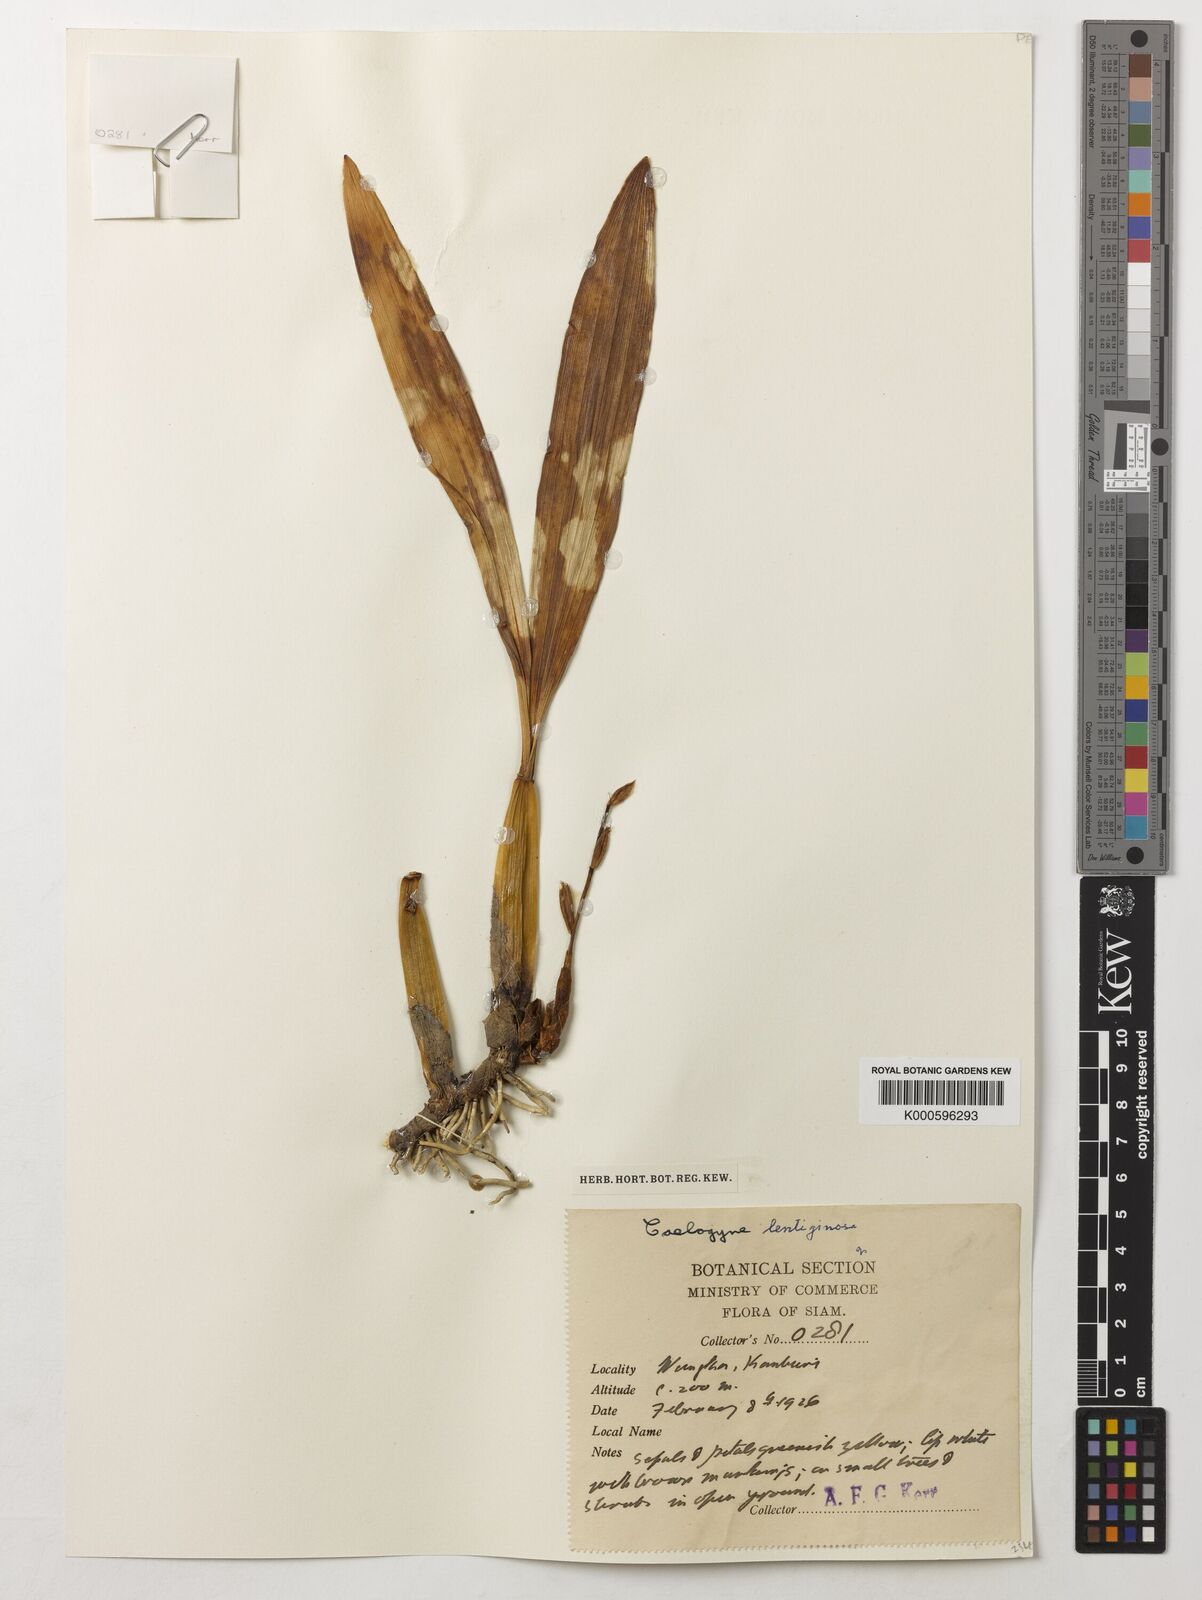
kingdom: Plantae
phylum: Tracheophyta
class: Liliopsida
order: Asparagales
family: Orchidaceae
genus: Coelogyne
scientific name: Coelogyne lentiginosa
